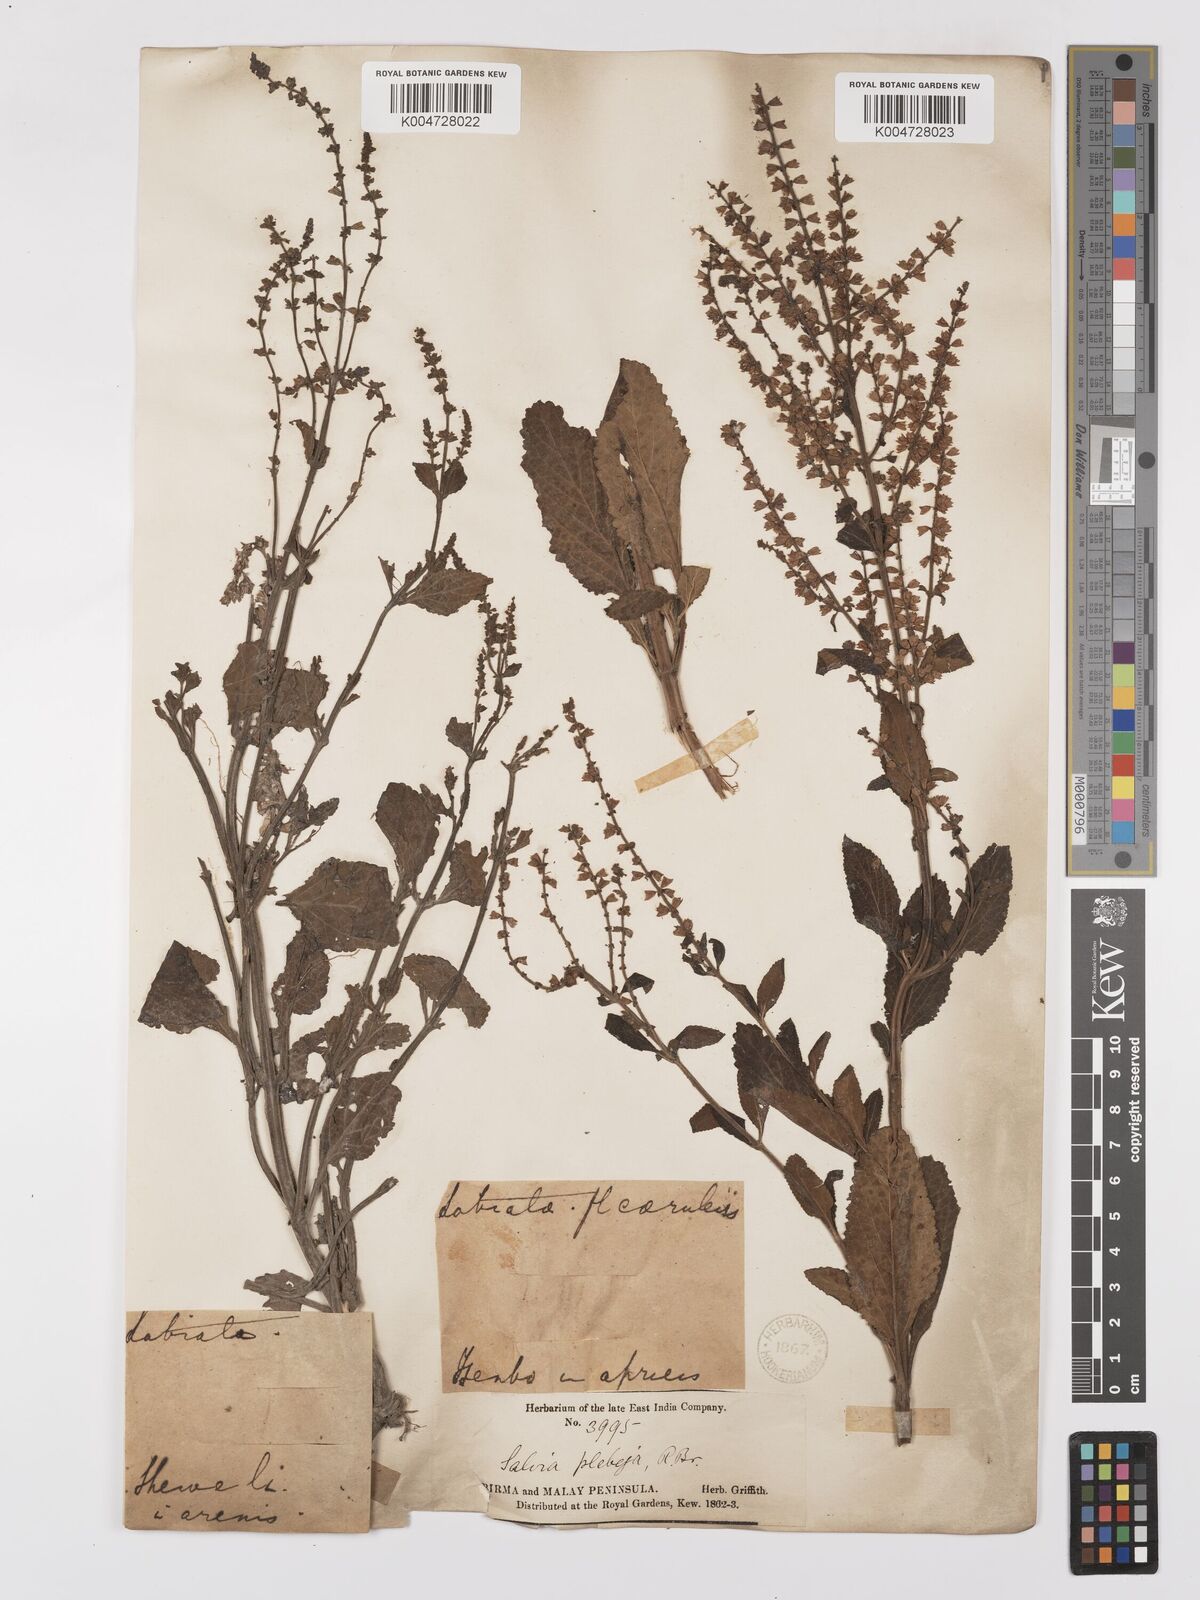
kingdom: Plantae
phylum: Tracheophyta
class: Magnoliopsida
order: Lamiales
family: Lamiaceae
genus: Salvia
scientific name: Salvia plebeia
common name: Australian sage
